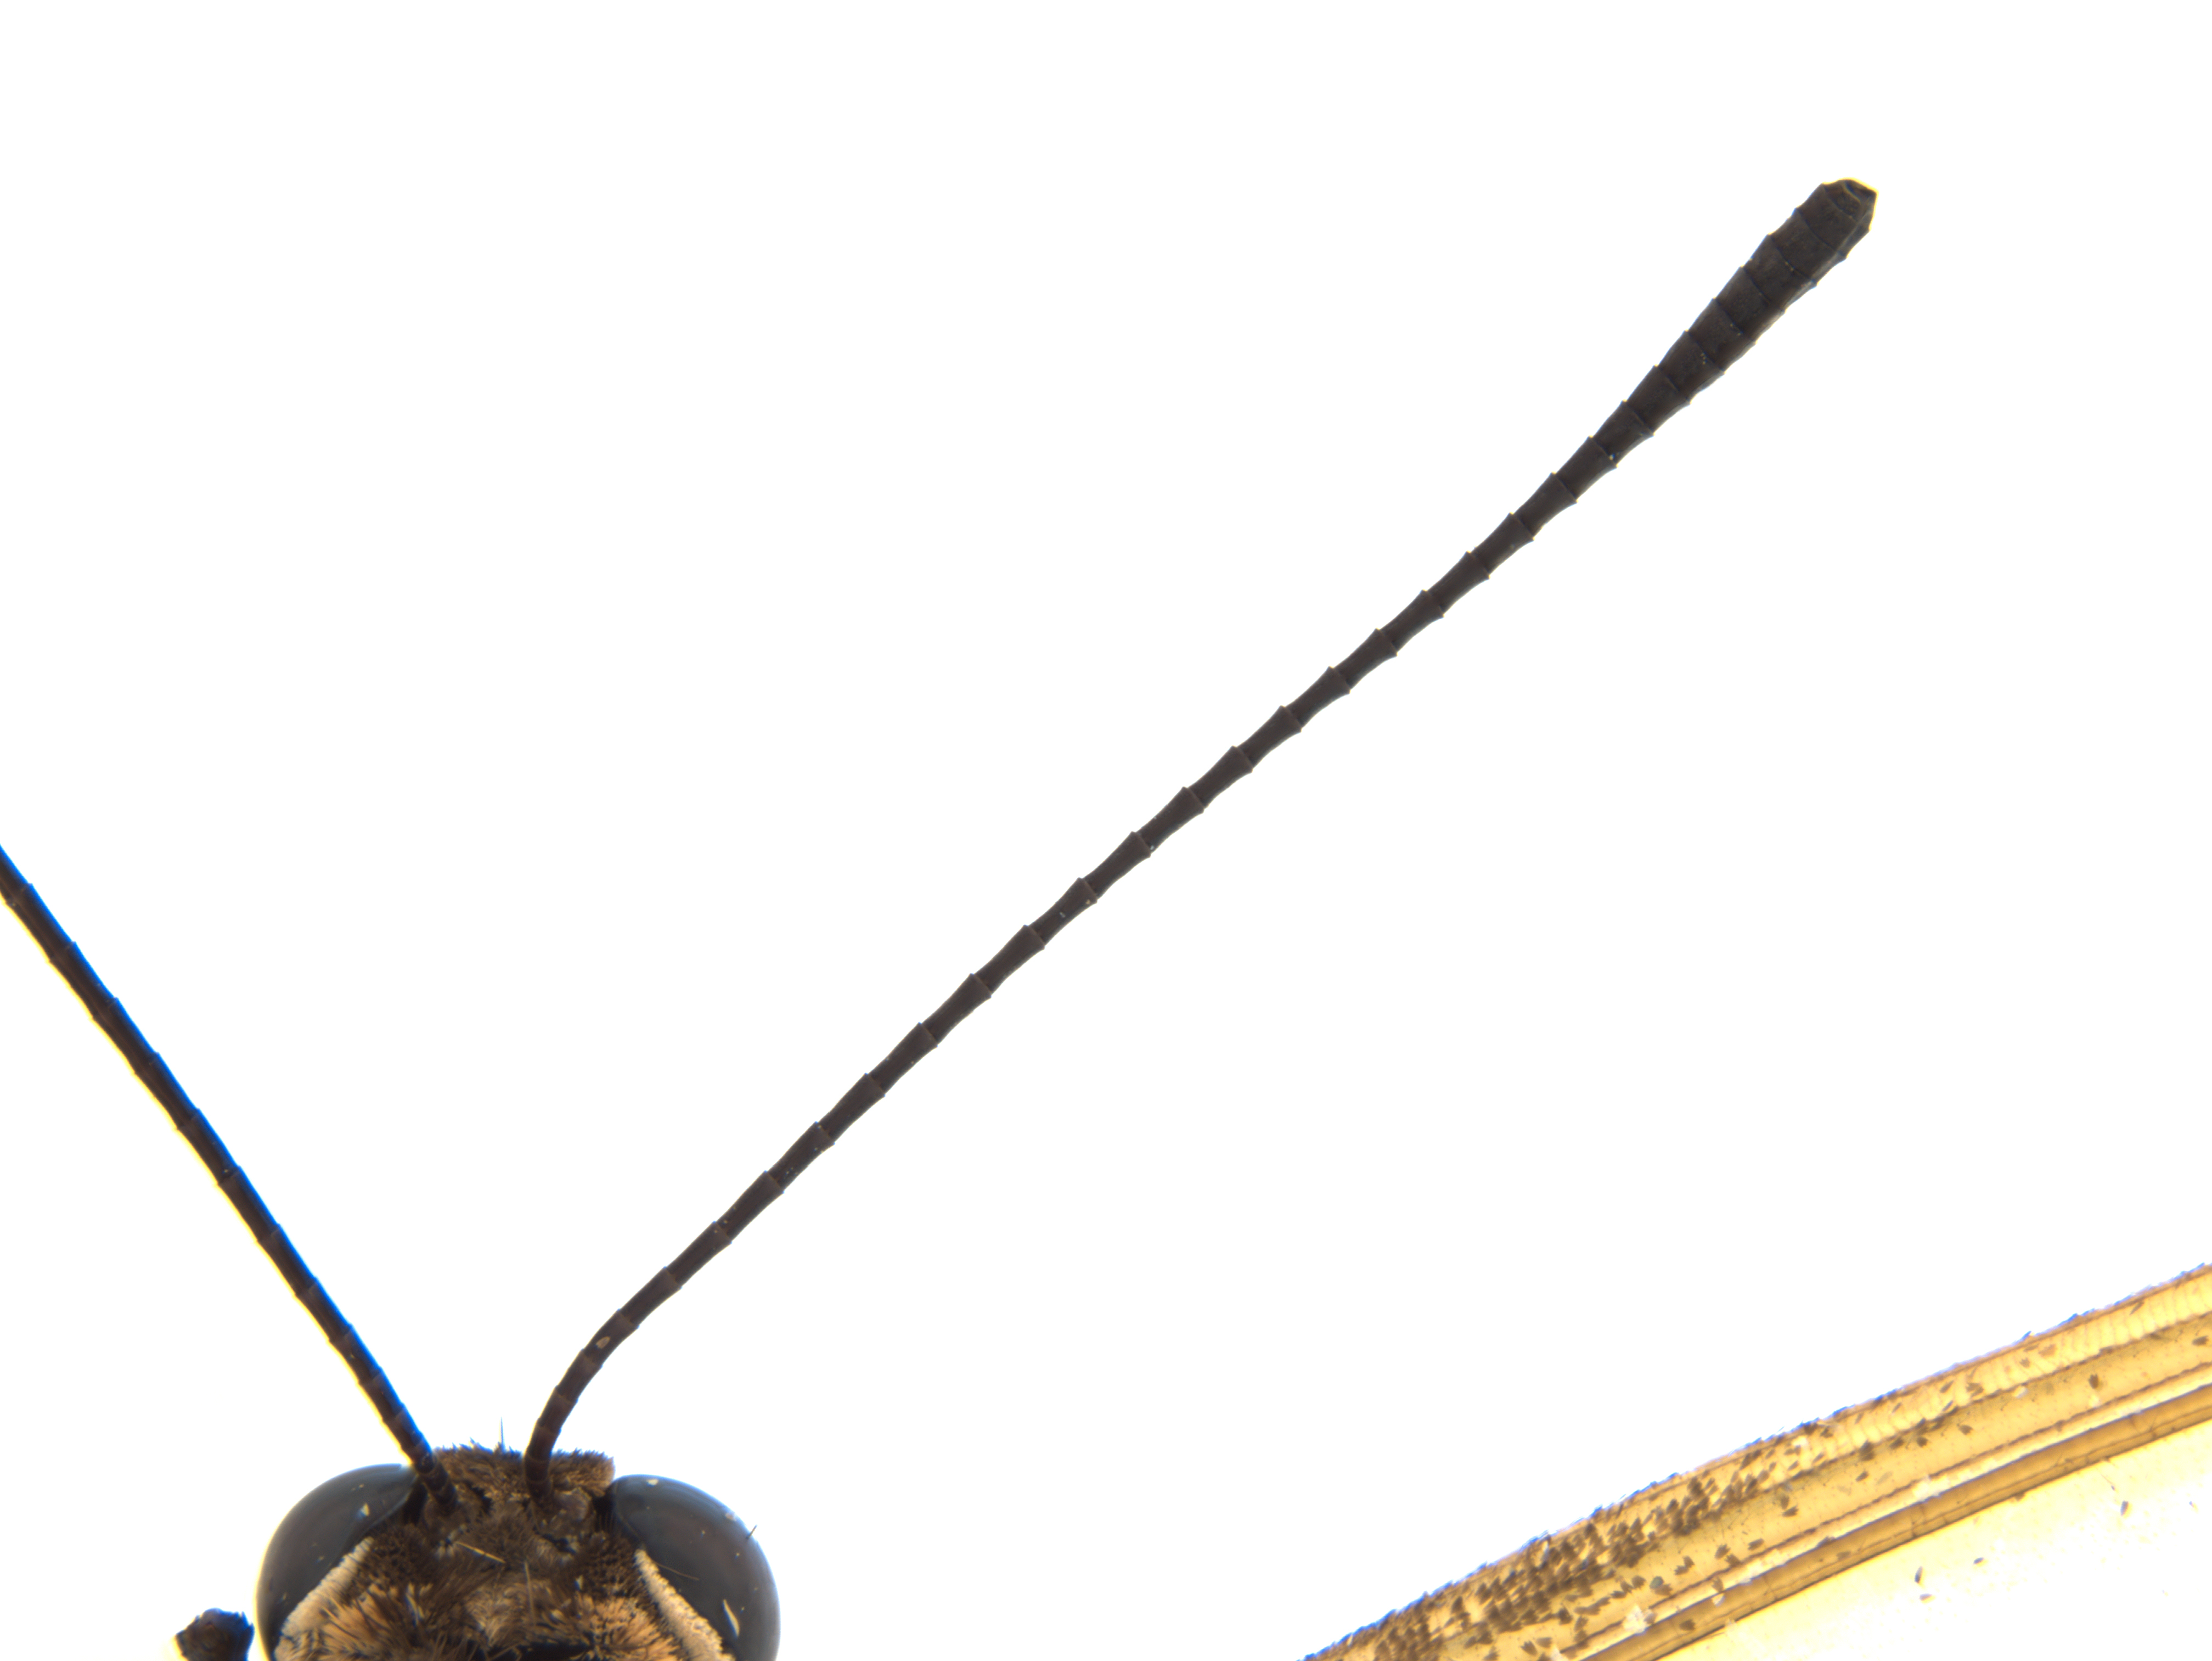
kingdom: Animalia
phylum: Arthropoda
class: Insecta
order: Lepidoptera
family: Papilionidae
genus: Cressida
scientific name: Cressida cressida
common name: Big greasy
